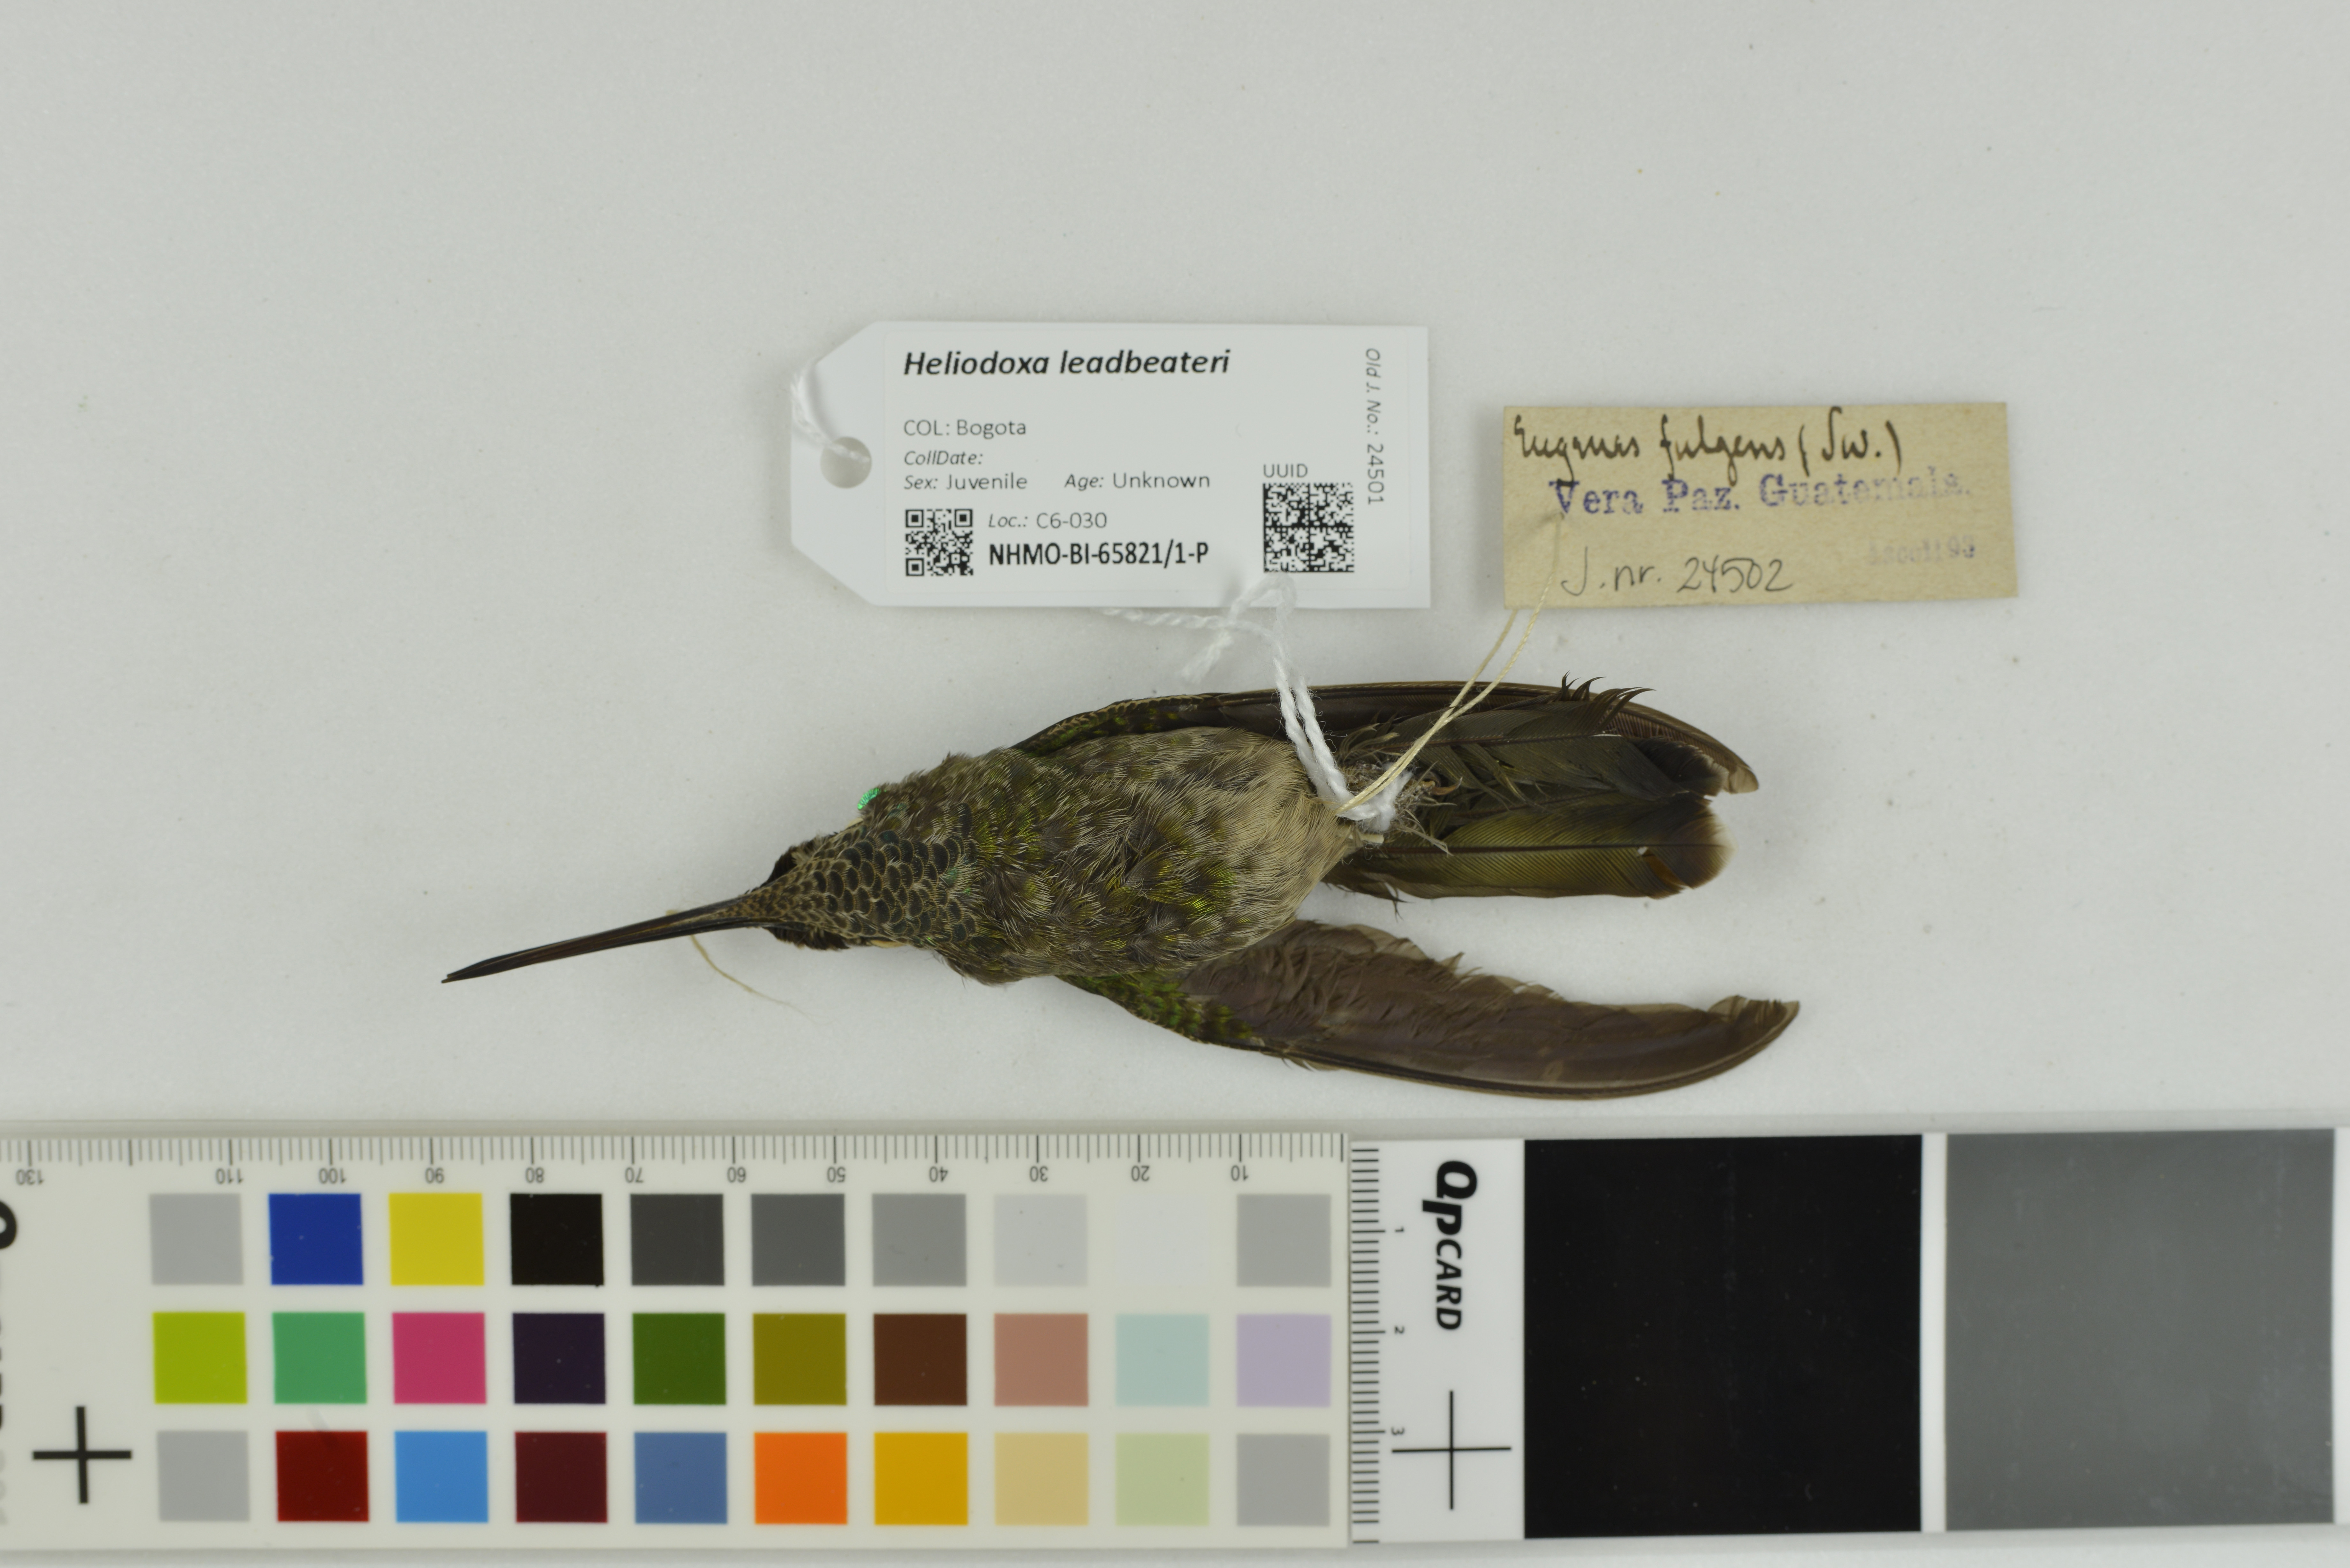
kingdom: Animalia
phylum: Chordata
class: Aves
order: Apodiformes
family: Trochilidae
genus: Heliodoxa
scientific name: Heliodoxa leadbeateri
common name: Violet-fronted brilliant
